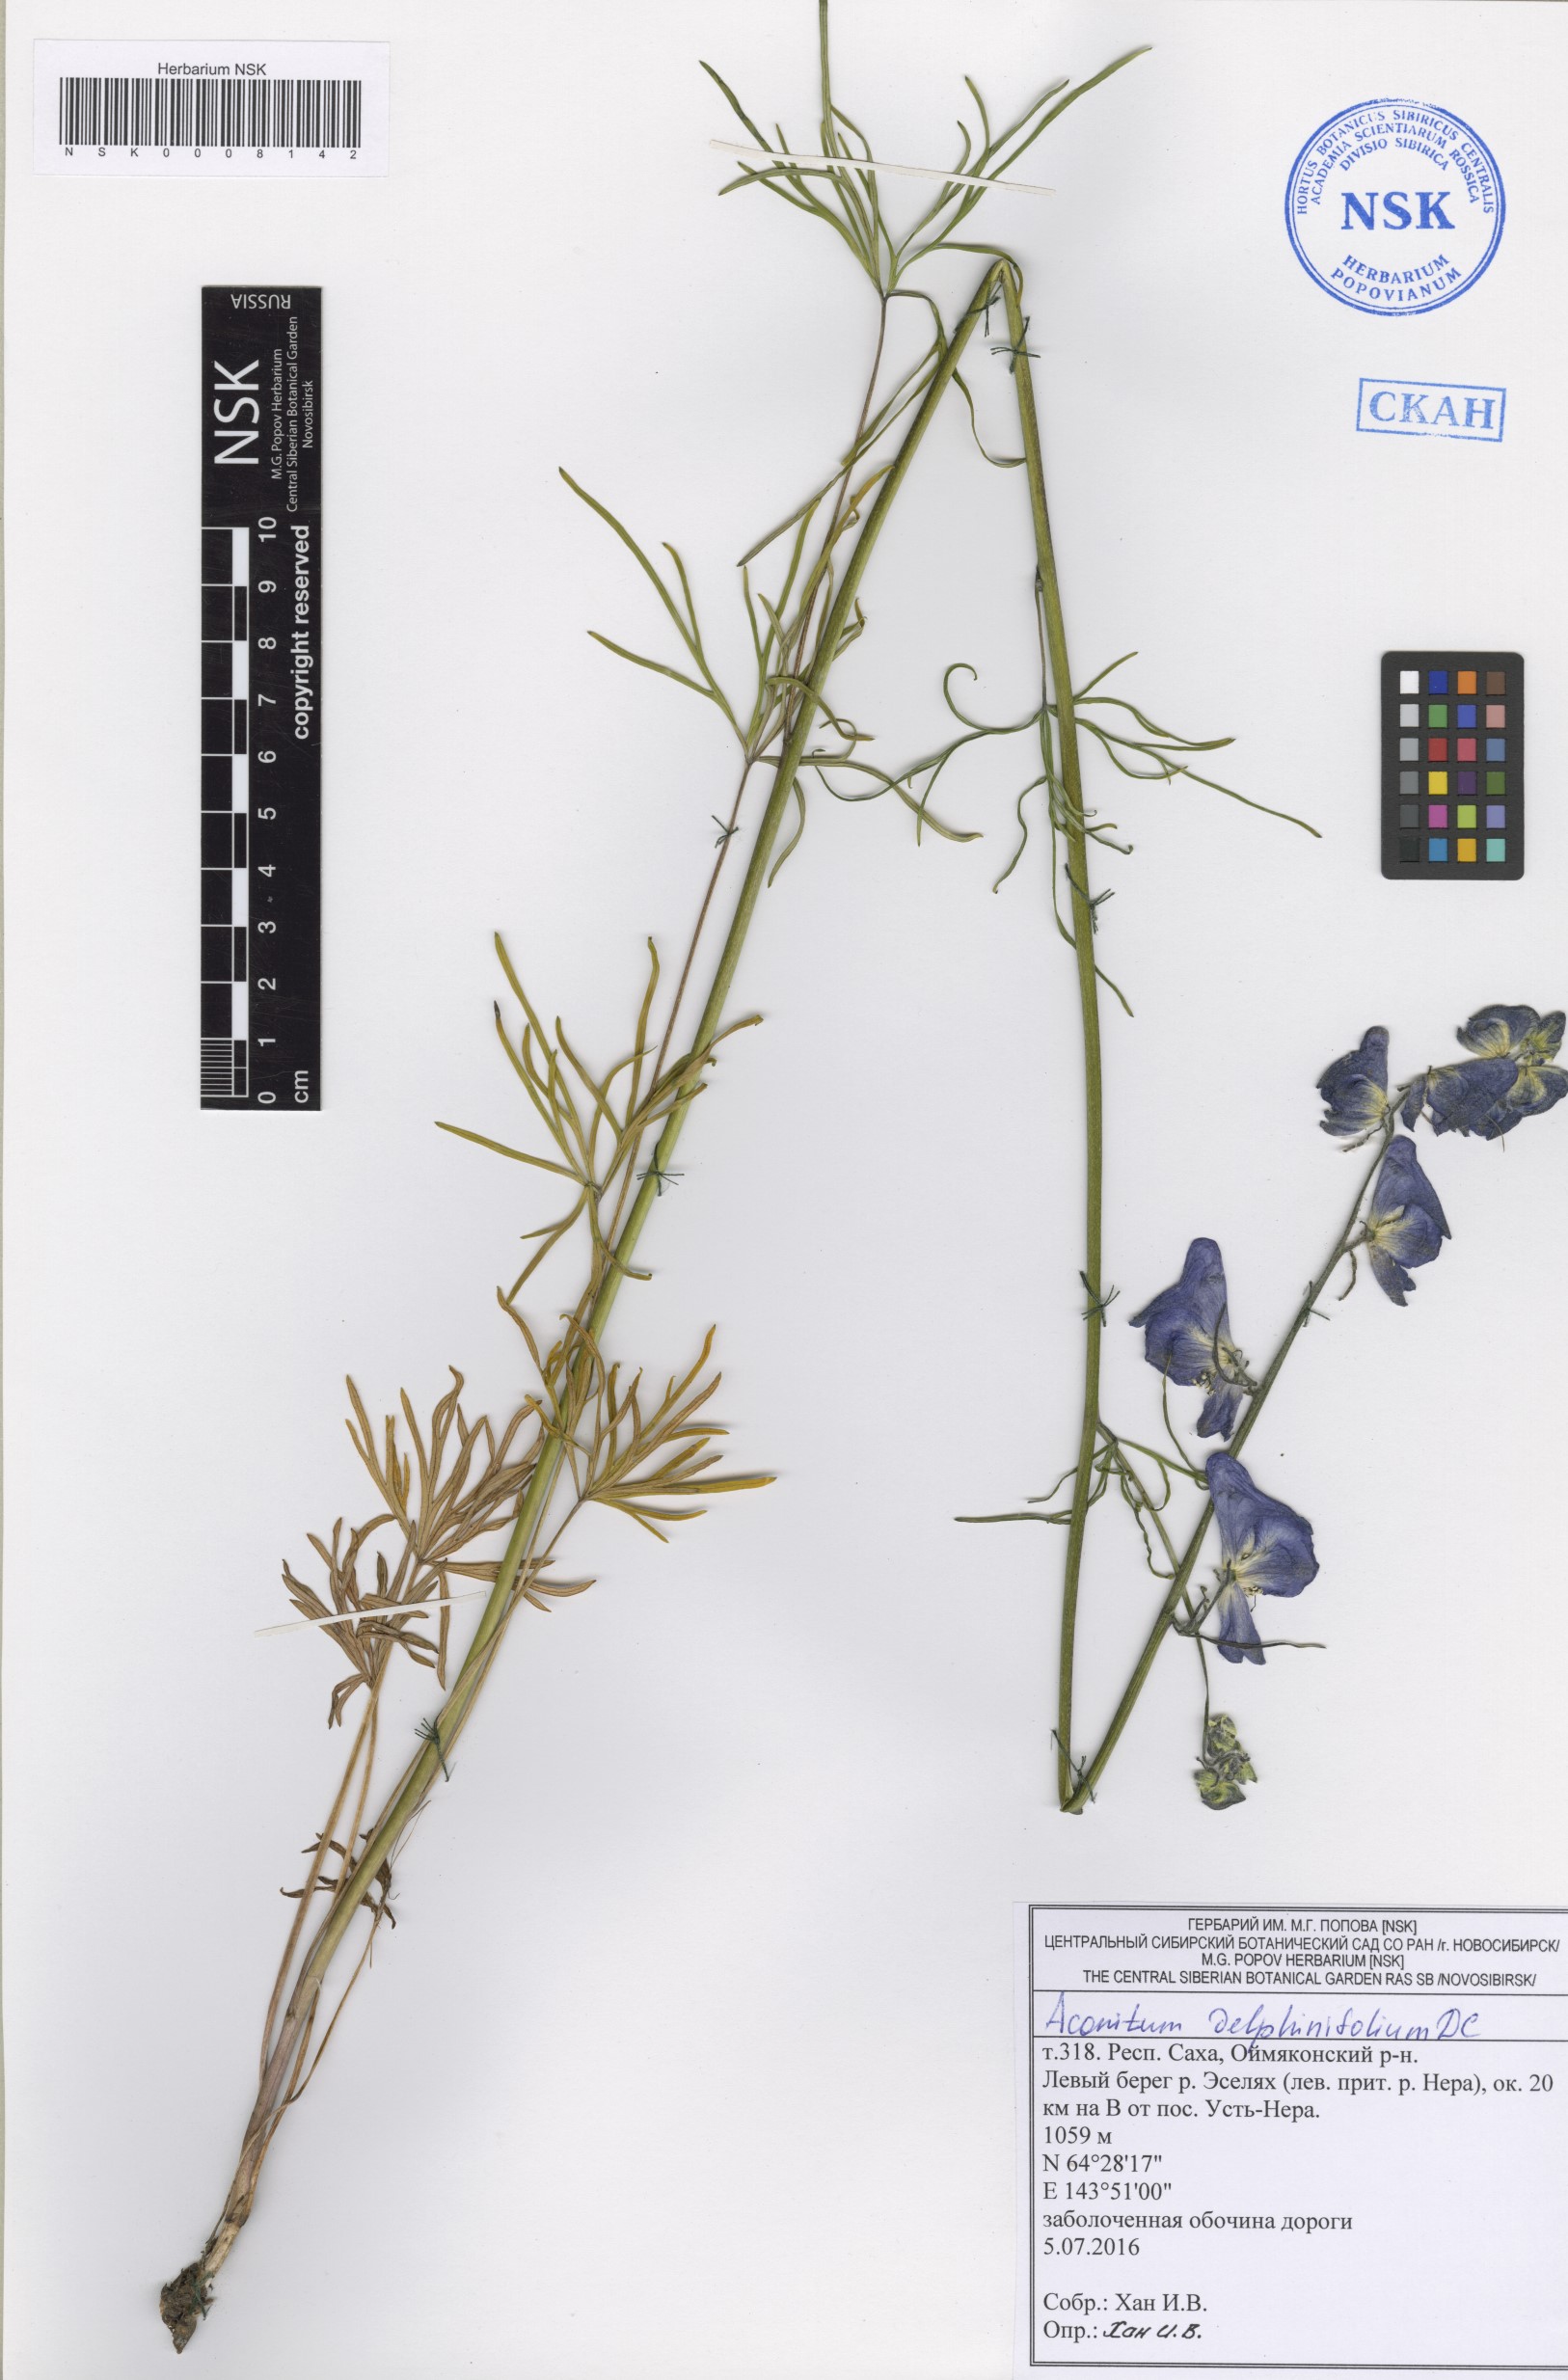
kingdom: Plantae
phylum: Tracheophyta
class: Magnoliopsida
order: Ranunculales
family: Ranunculaceae
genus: Aconitum
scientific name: Aconitum delphinifolium
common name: Larkspur-leaved monkshood
